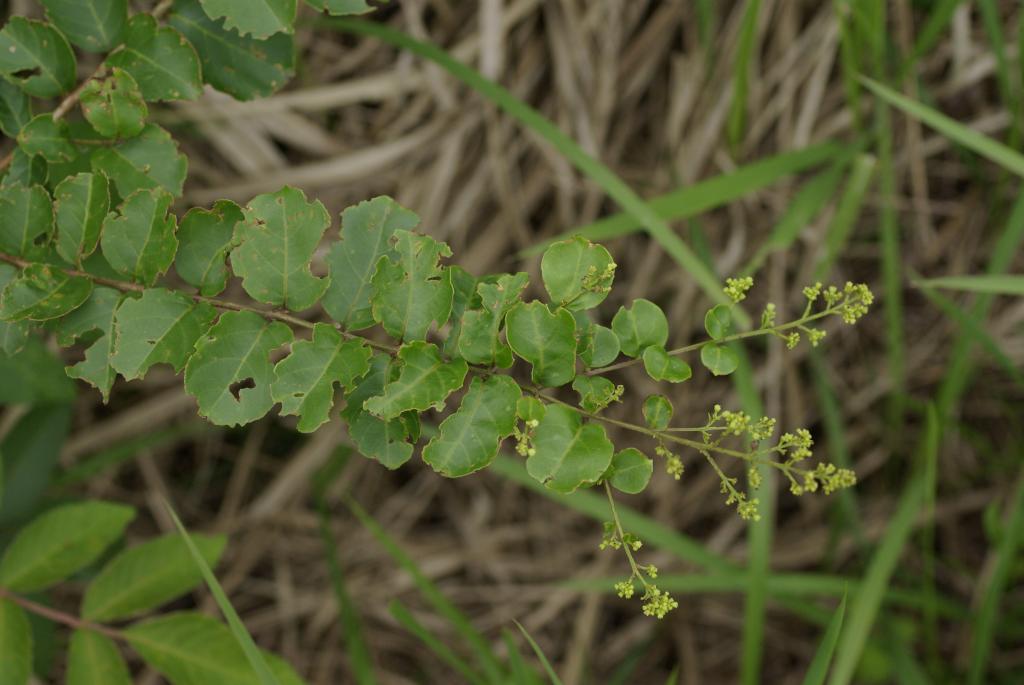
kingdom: Plantae
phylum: Tracheophyta
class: Magnoliopsida
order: Myrtales
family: Lythraceae
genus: Lagerstroemia
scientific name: Lagerstroemia subcostata
